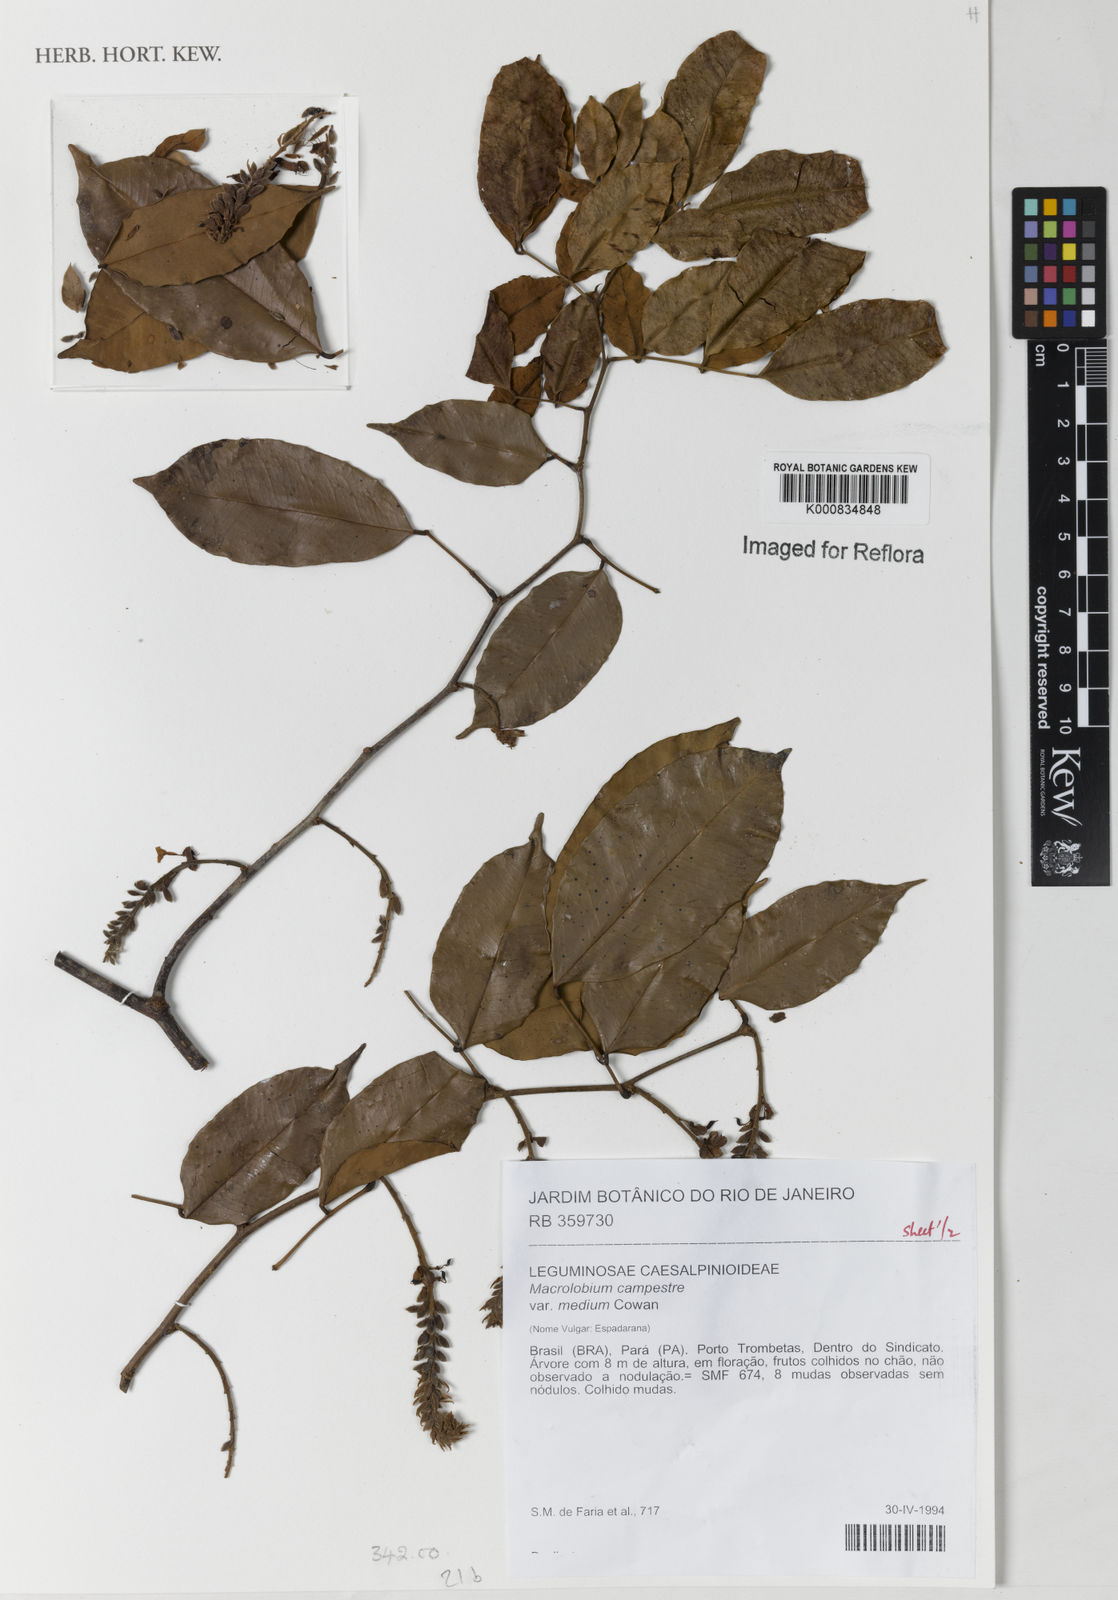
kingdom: Plantae
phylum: Tracheophyta
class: Magnoliopsida
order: Fabales
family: Fabaceae
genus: Macrolobium
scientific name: Macrolobium campestre
